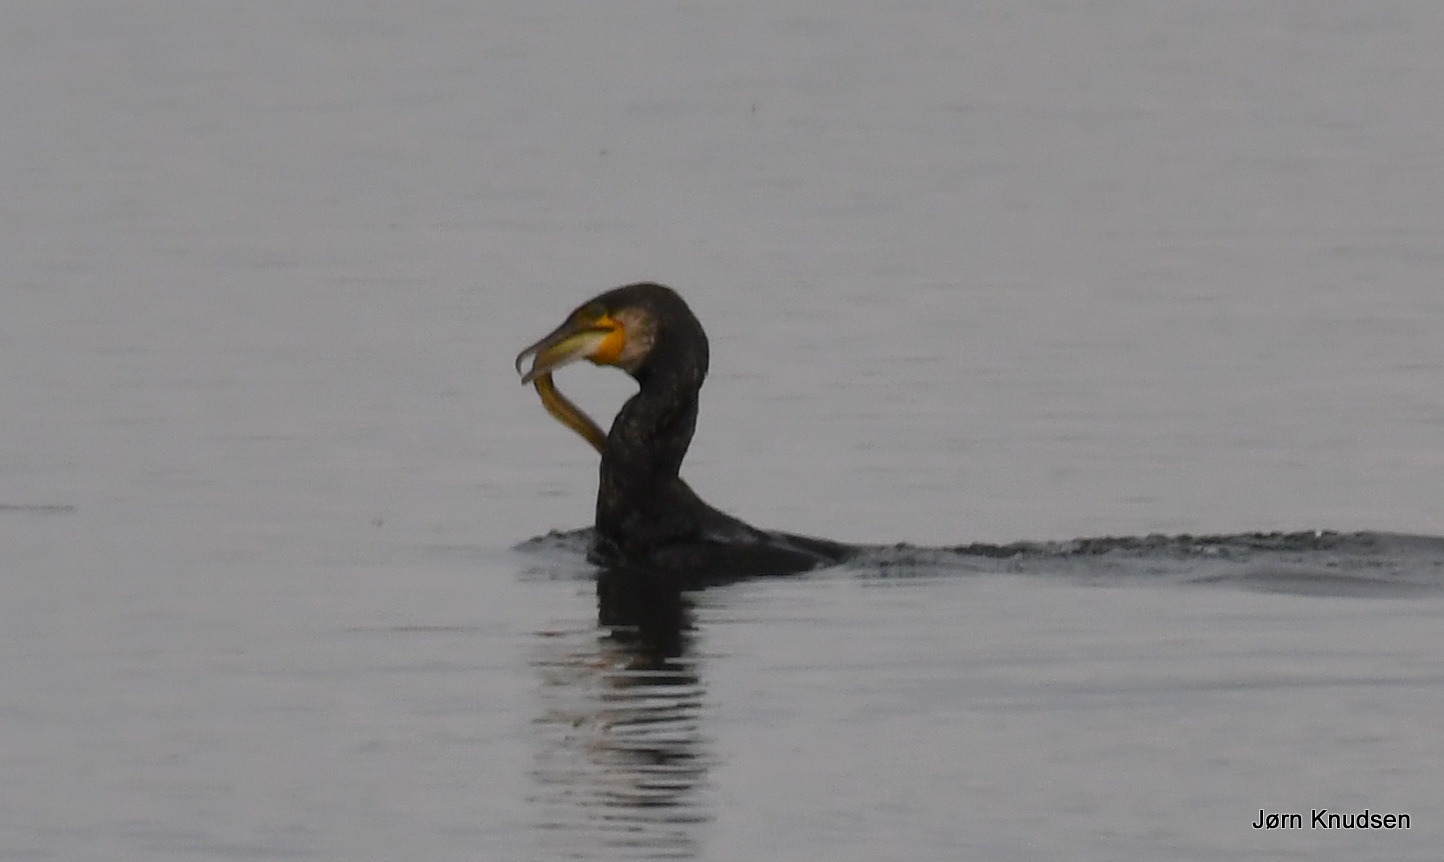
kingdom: Animalia
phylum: Chordata
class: Aves
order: Suliformes
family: Phalacrocoracidae
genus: Phalacrocorax
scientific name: Phalacrocorax carbo
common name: Skarv
